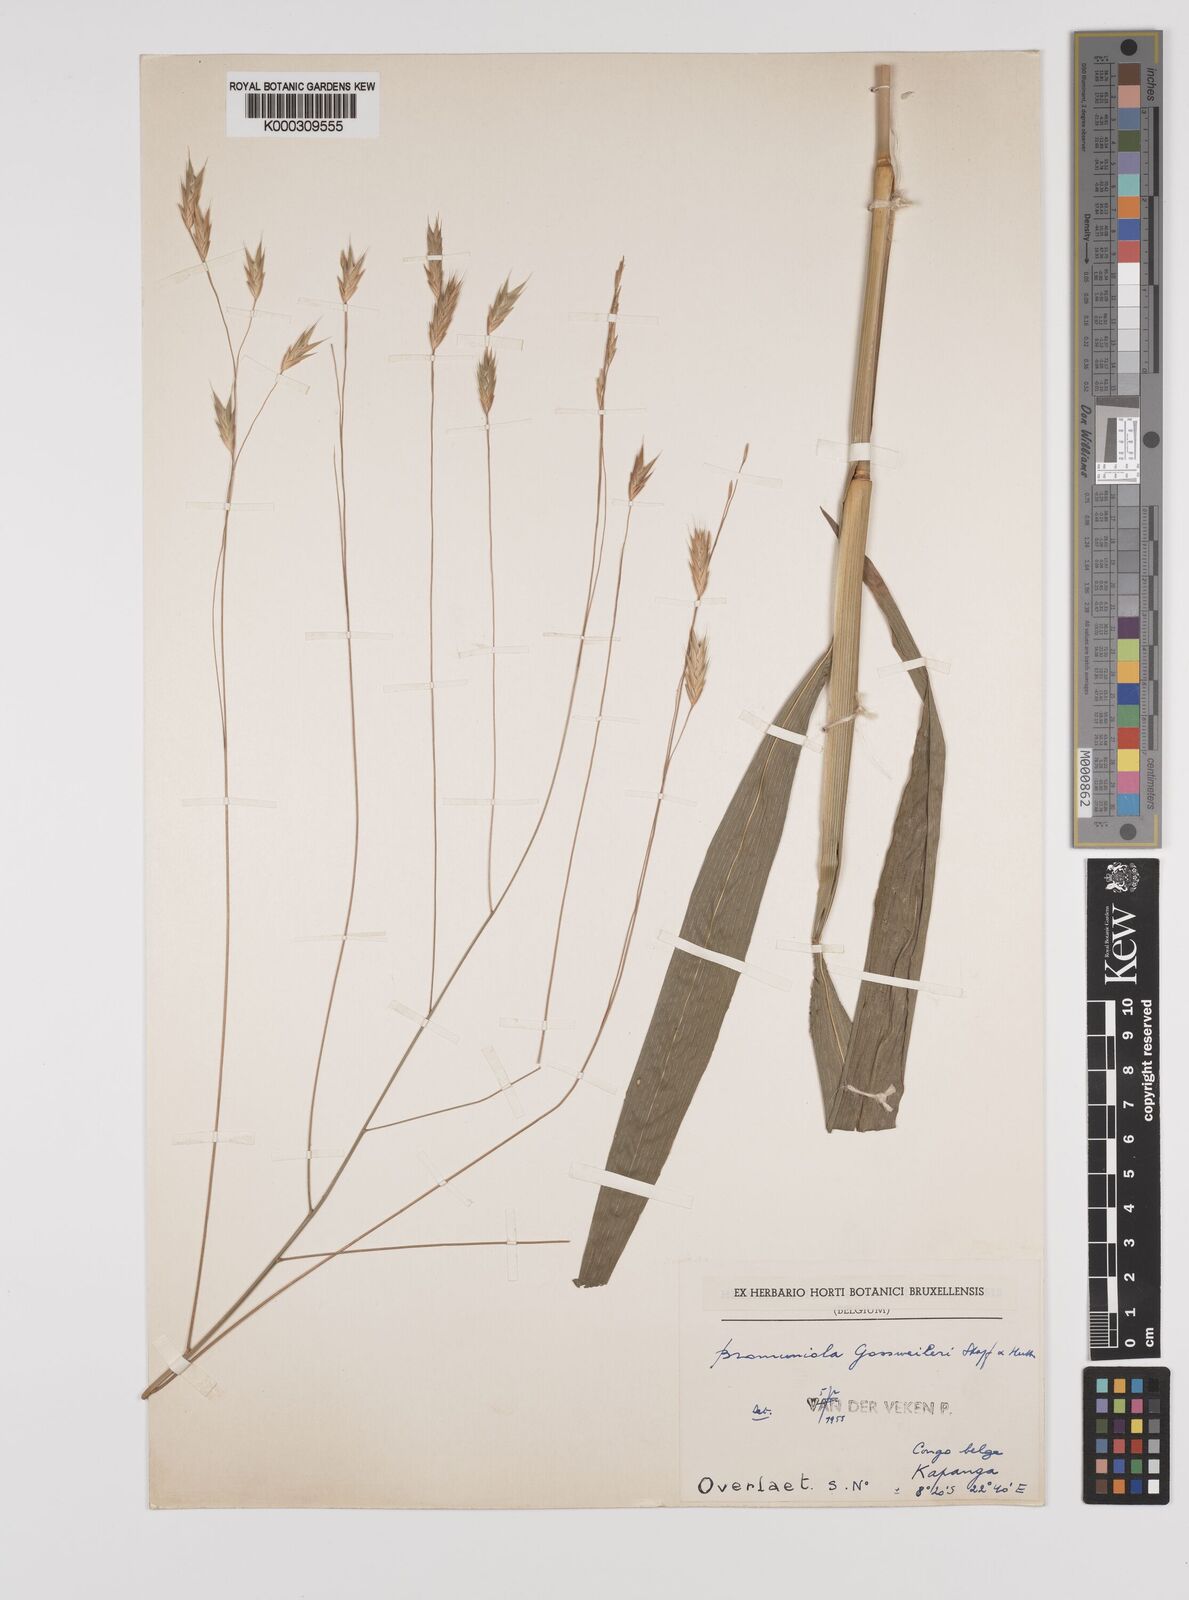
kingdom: Plantae
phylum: Tracheophyta
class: Liliopsida
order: Poales
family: Poaceae
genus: Bromuniola
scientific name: Bromuniola gossweileri
